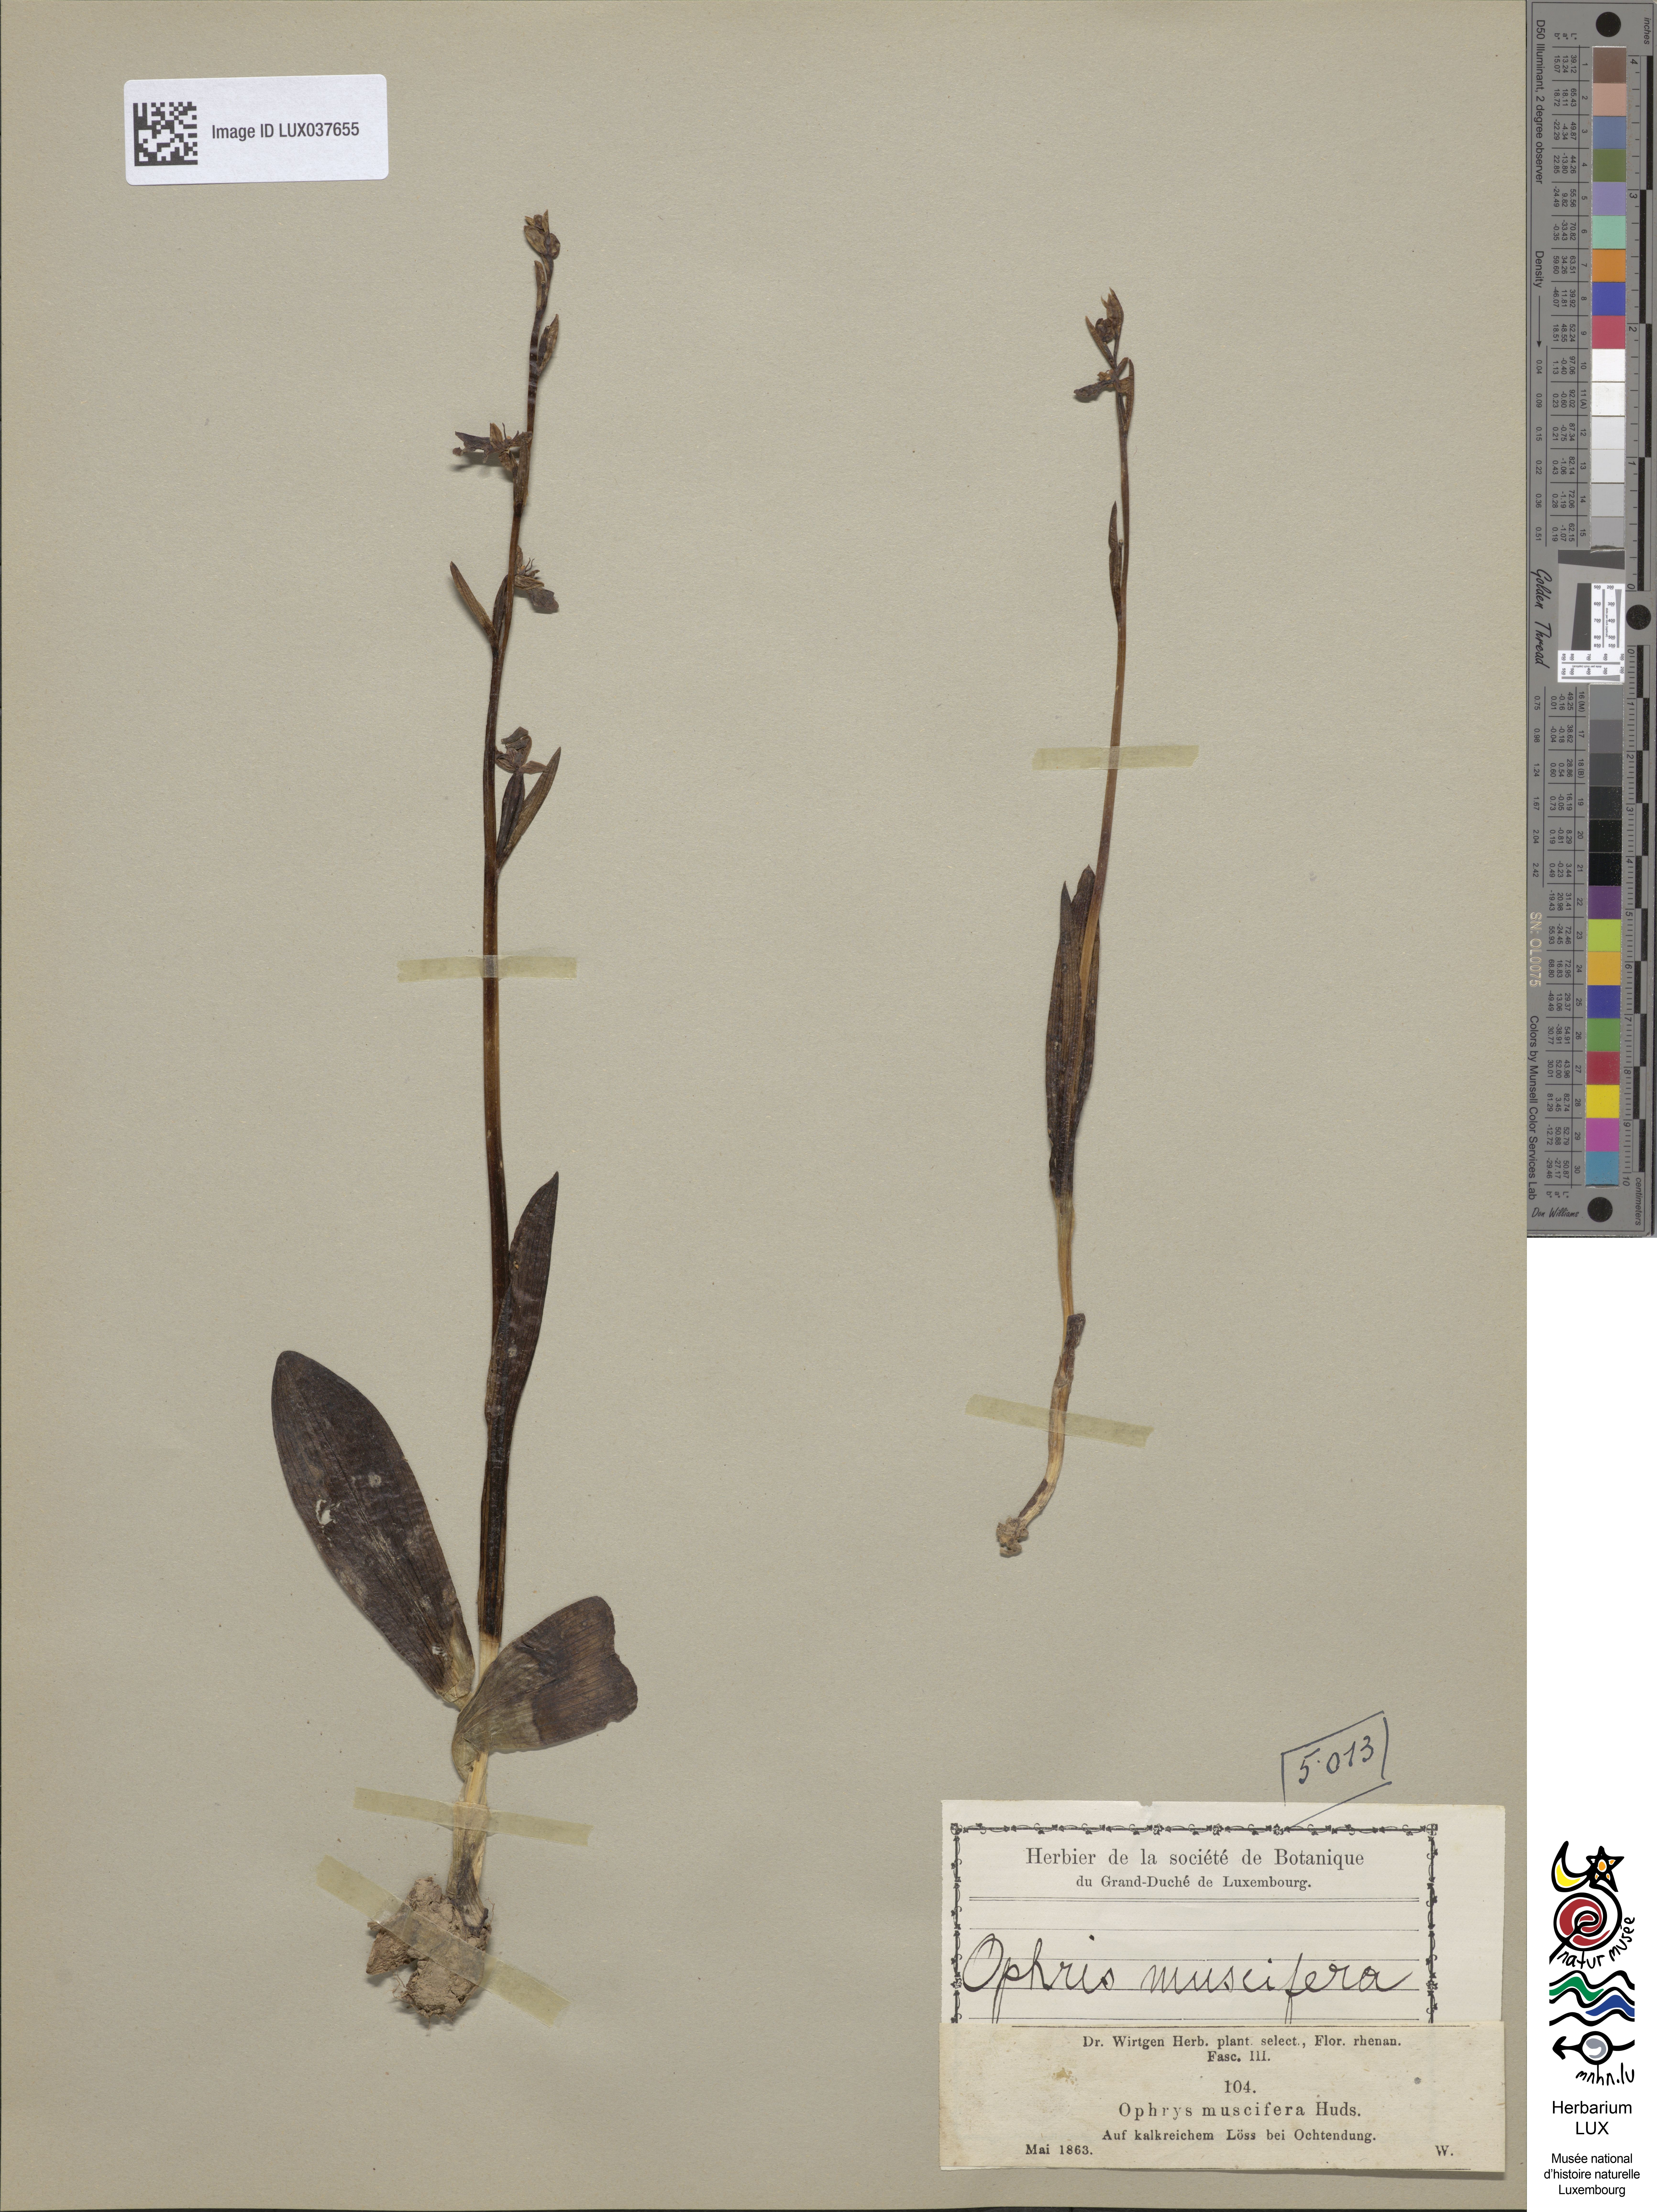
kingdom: Plantae
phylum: Tracheophyta
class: Liliopsida
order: Asparagales
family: Orchidaceae
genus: Ophrys
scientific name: Ophrys insectifera
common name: Fly orchid
